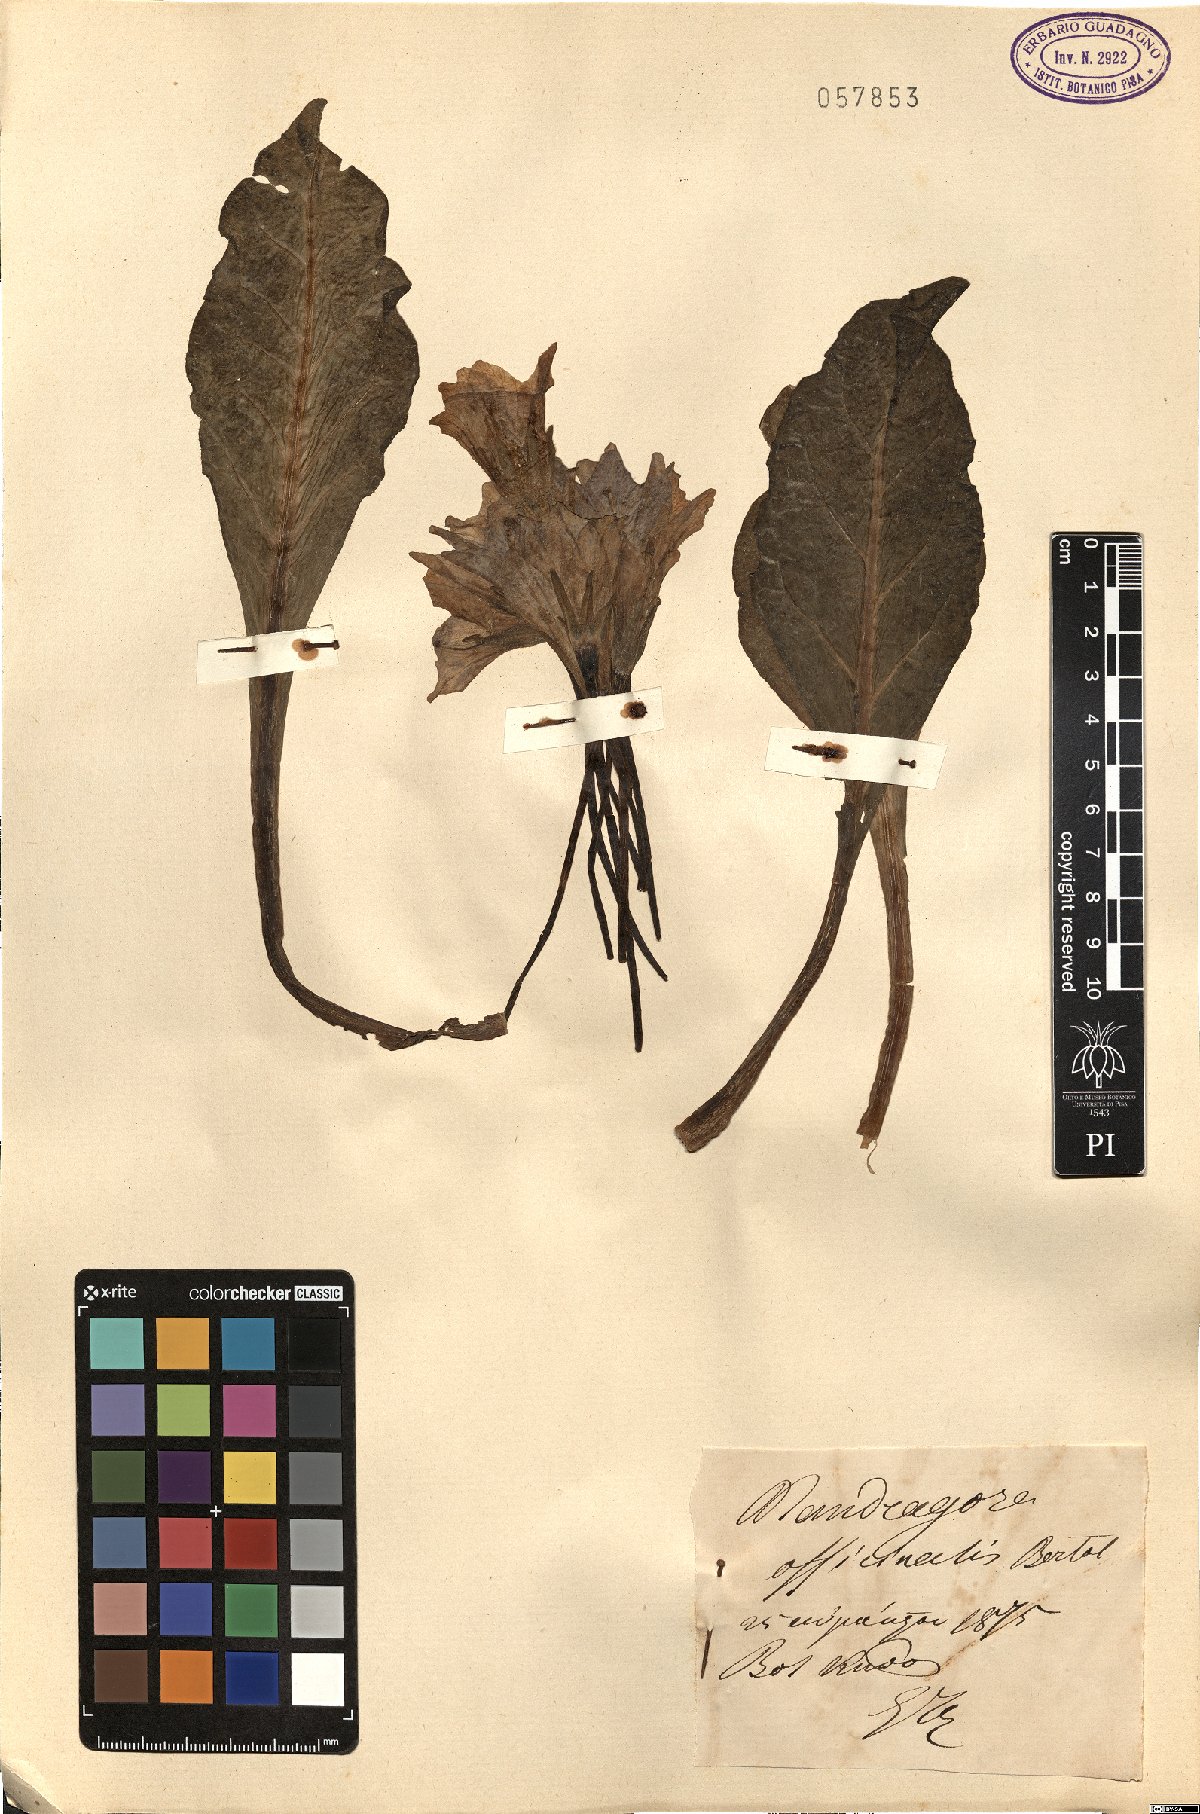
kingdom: Plantae
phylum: Tracheophyta
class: Magnoliopsida
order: Solanales
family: Solanaceae
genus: Mandragora
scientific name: Mandragora officinarum
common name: Mandrake
